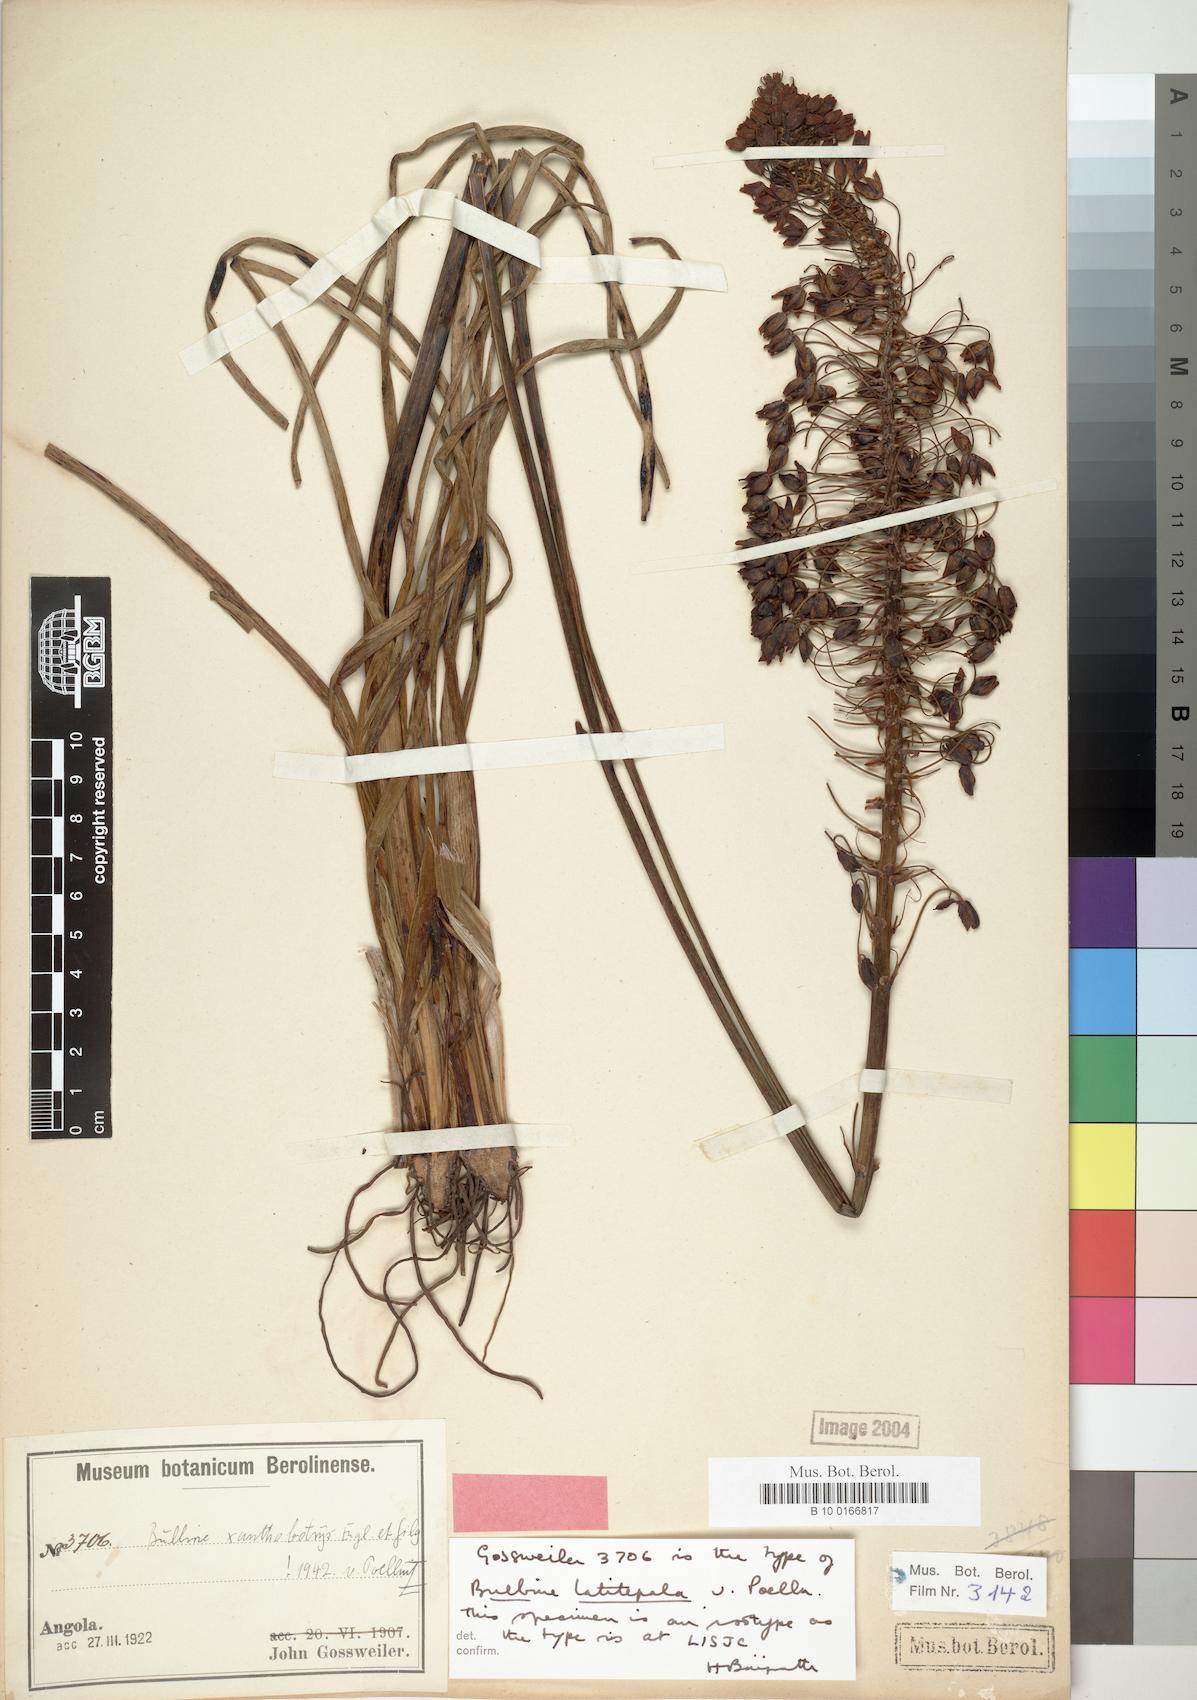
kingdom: Plantae
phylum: Tracheophyta
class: Liliopsida
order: Asparagales
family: Asphodelaceae
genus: Bulbine
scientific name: Bulbine abyssinica
